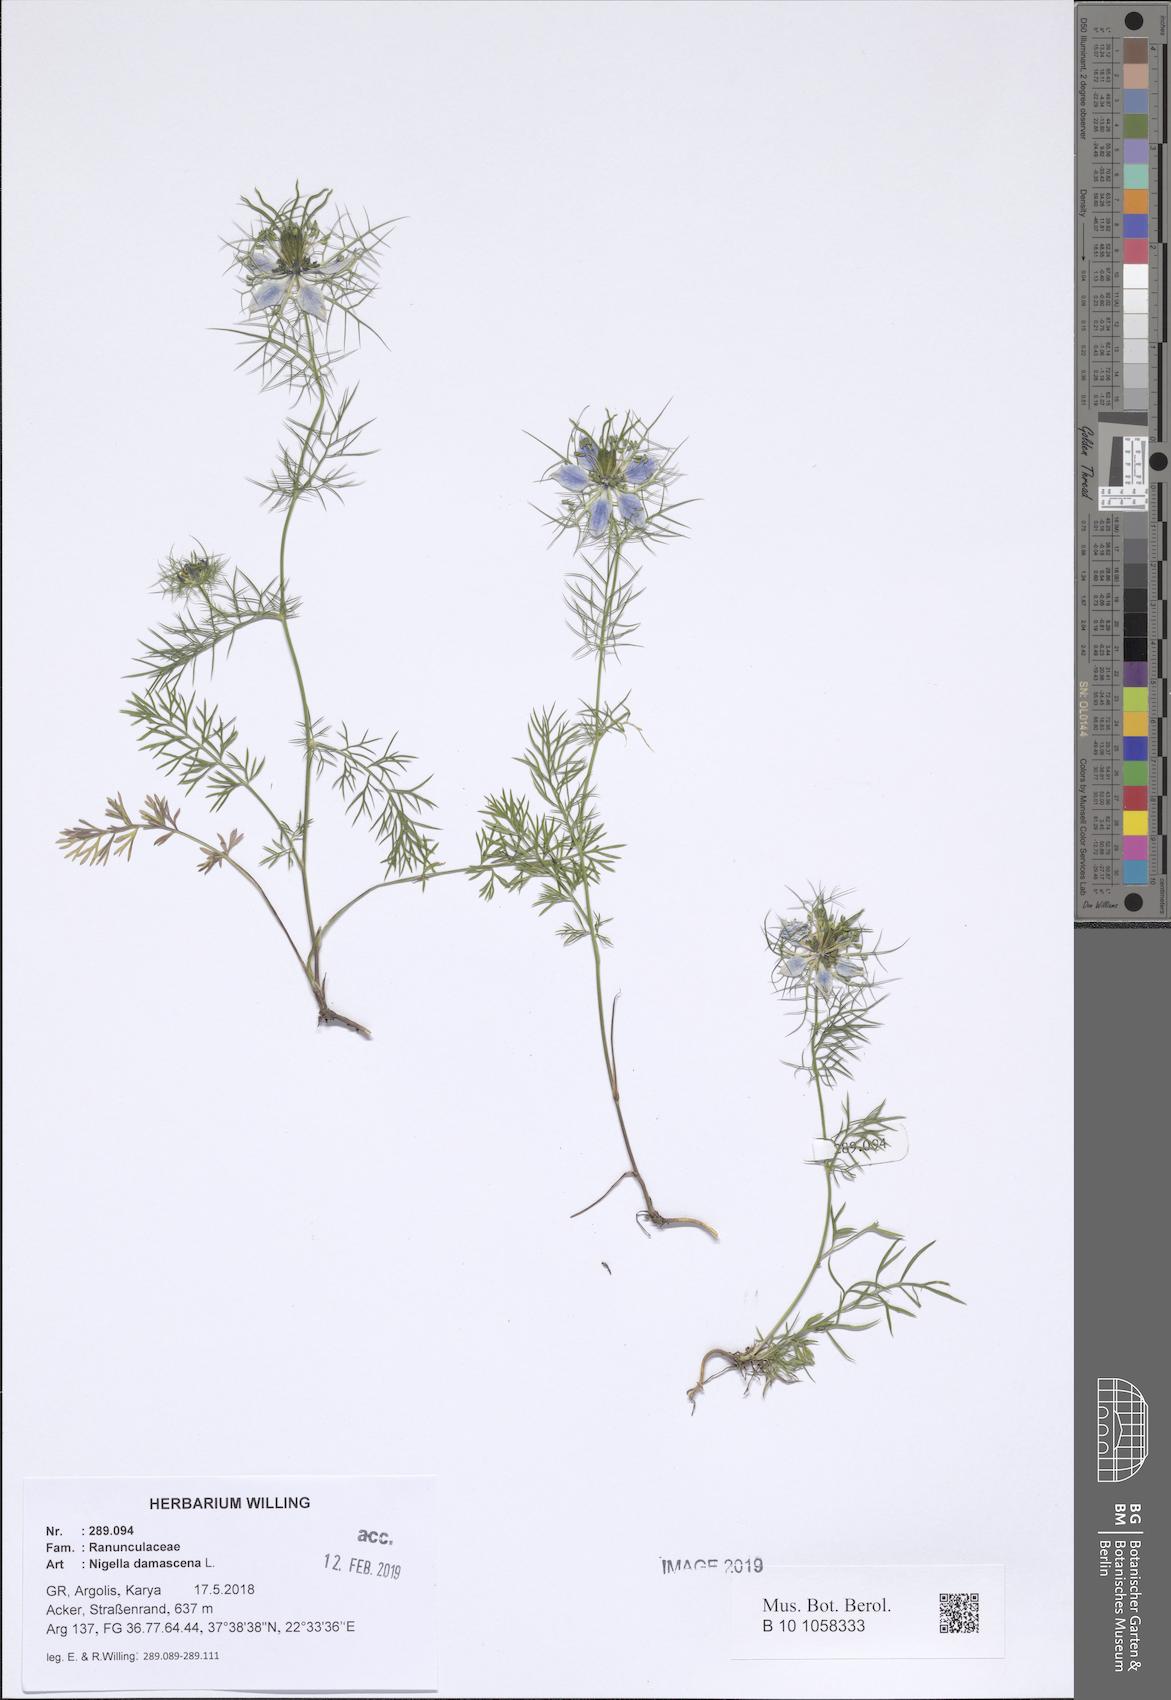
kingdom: Plantae
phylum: Tracheophyta
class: Magnoliopsida
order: Ranunculales
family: Ranunculaceae
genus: Nigella
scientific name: Nigella damascena
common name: Love-in-a-mist
